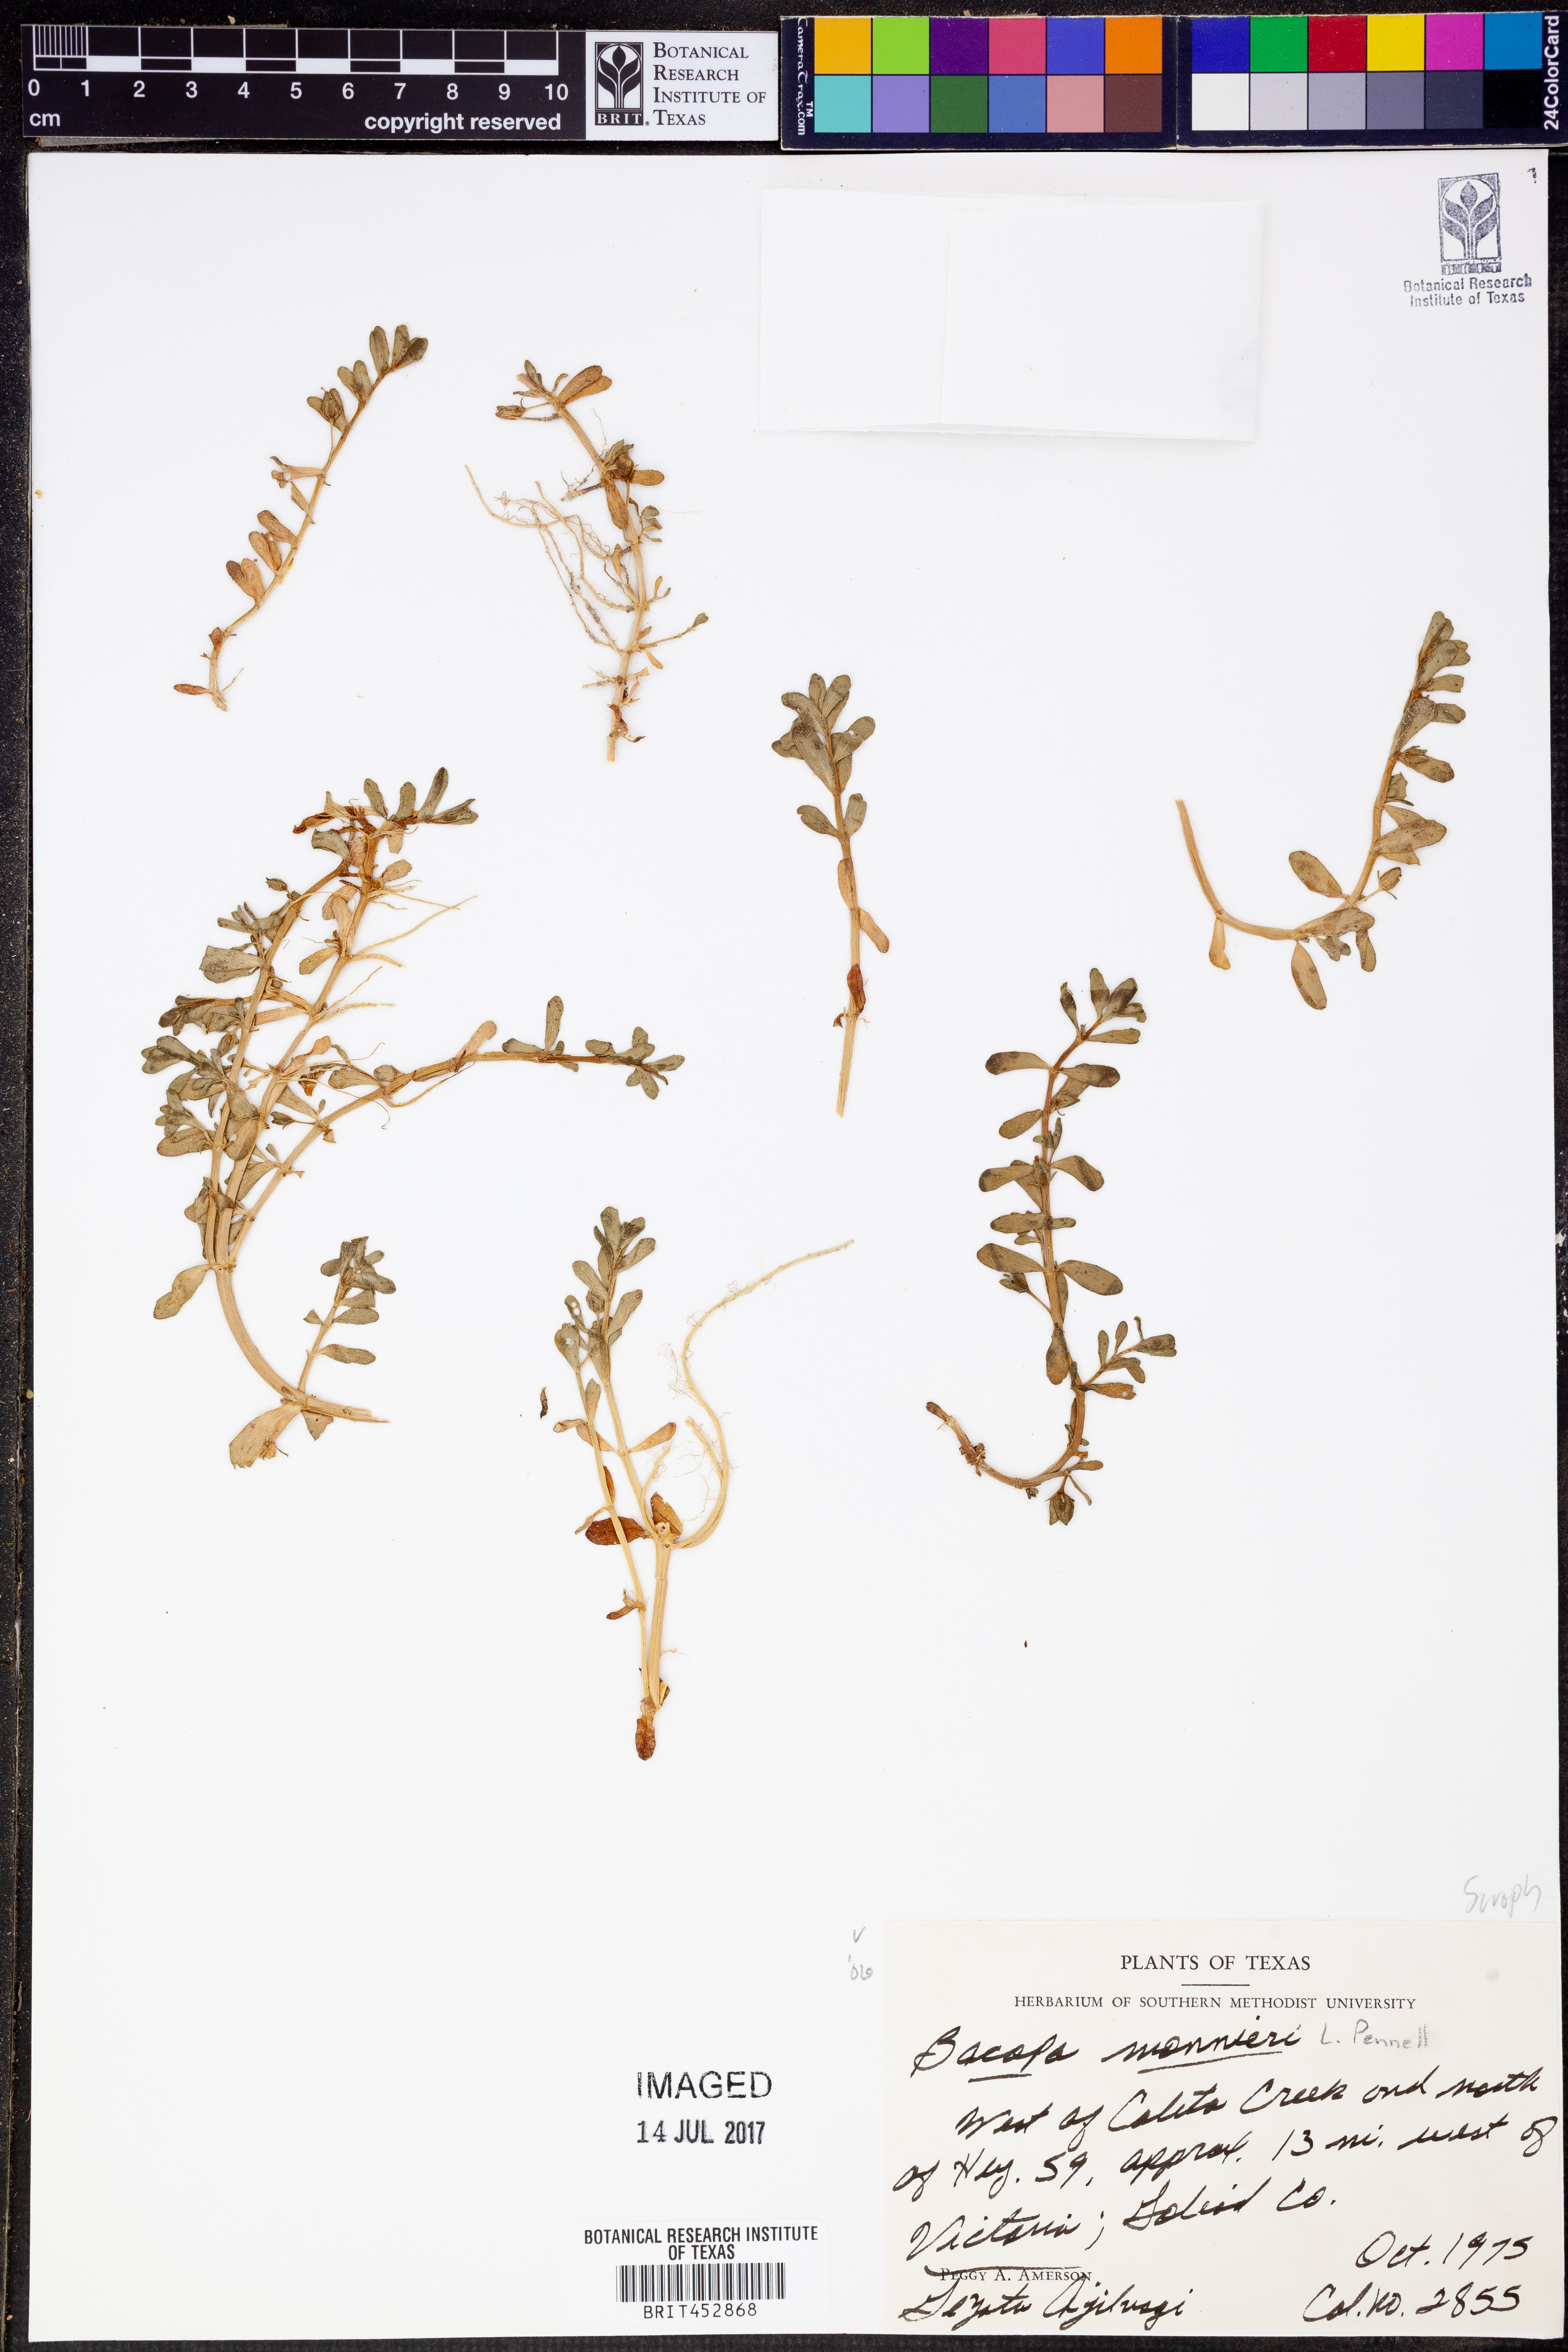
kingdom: Plantae
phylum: Tracheophyta
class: Magnoliopsida
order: Lamiales
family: Plantaginaceae
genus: Bacopa
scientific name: Bacopa monnieri
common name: Indian-pennywort
